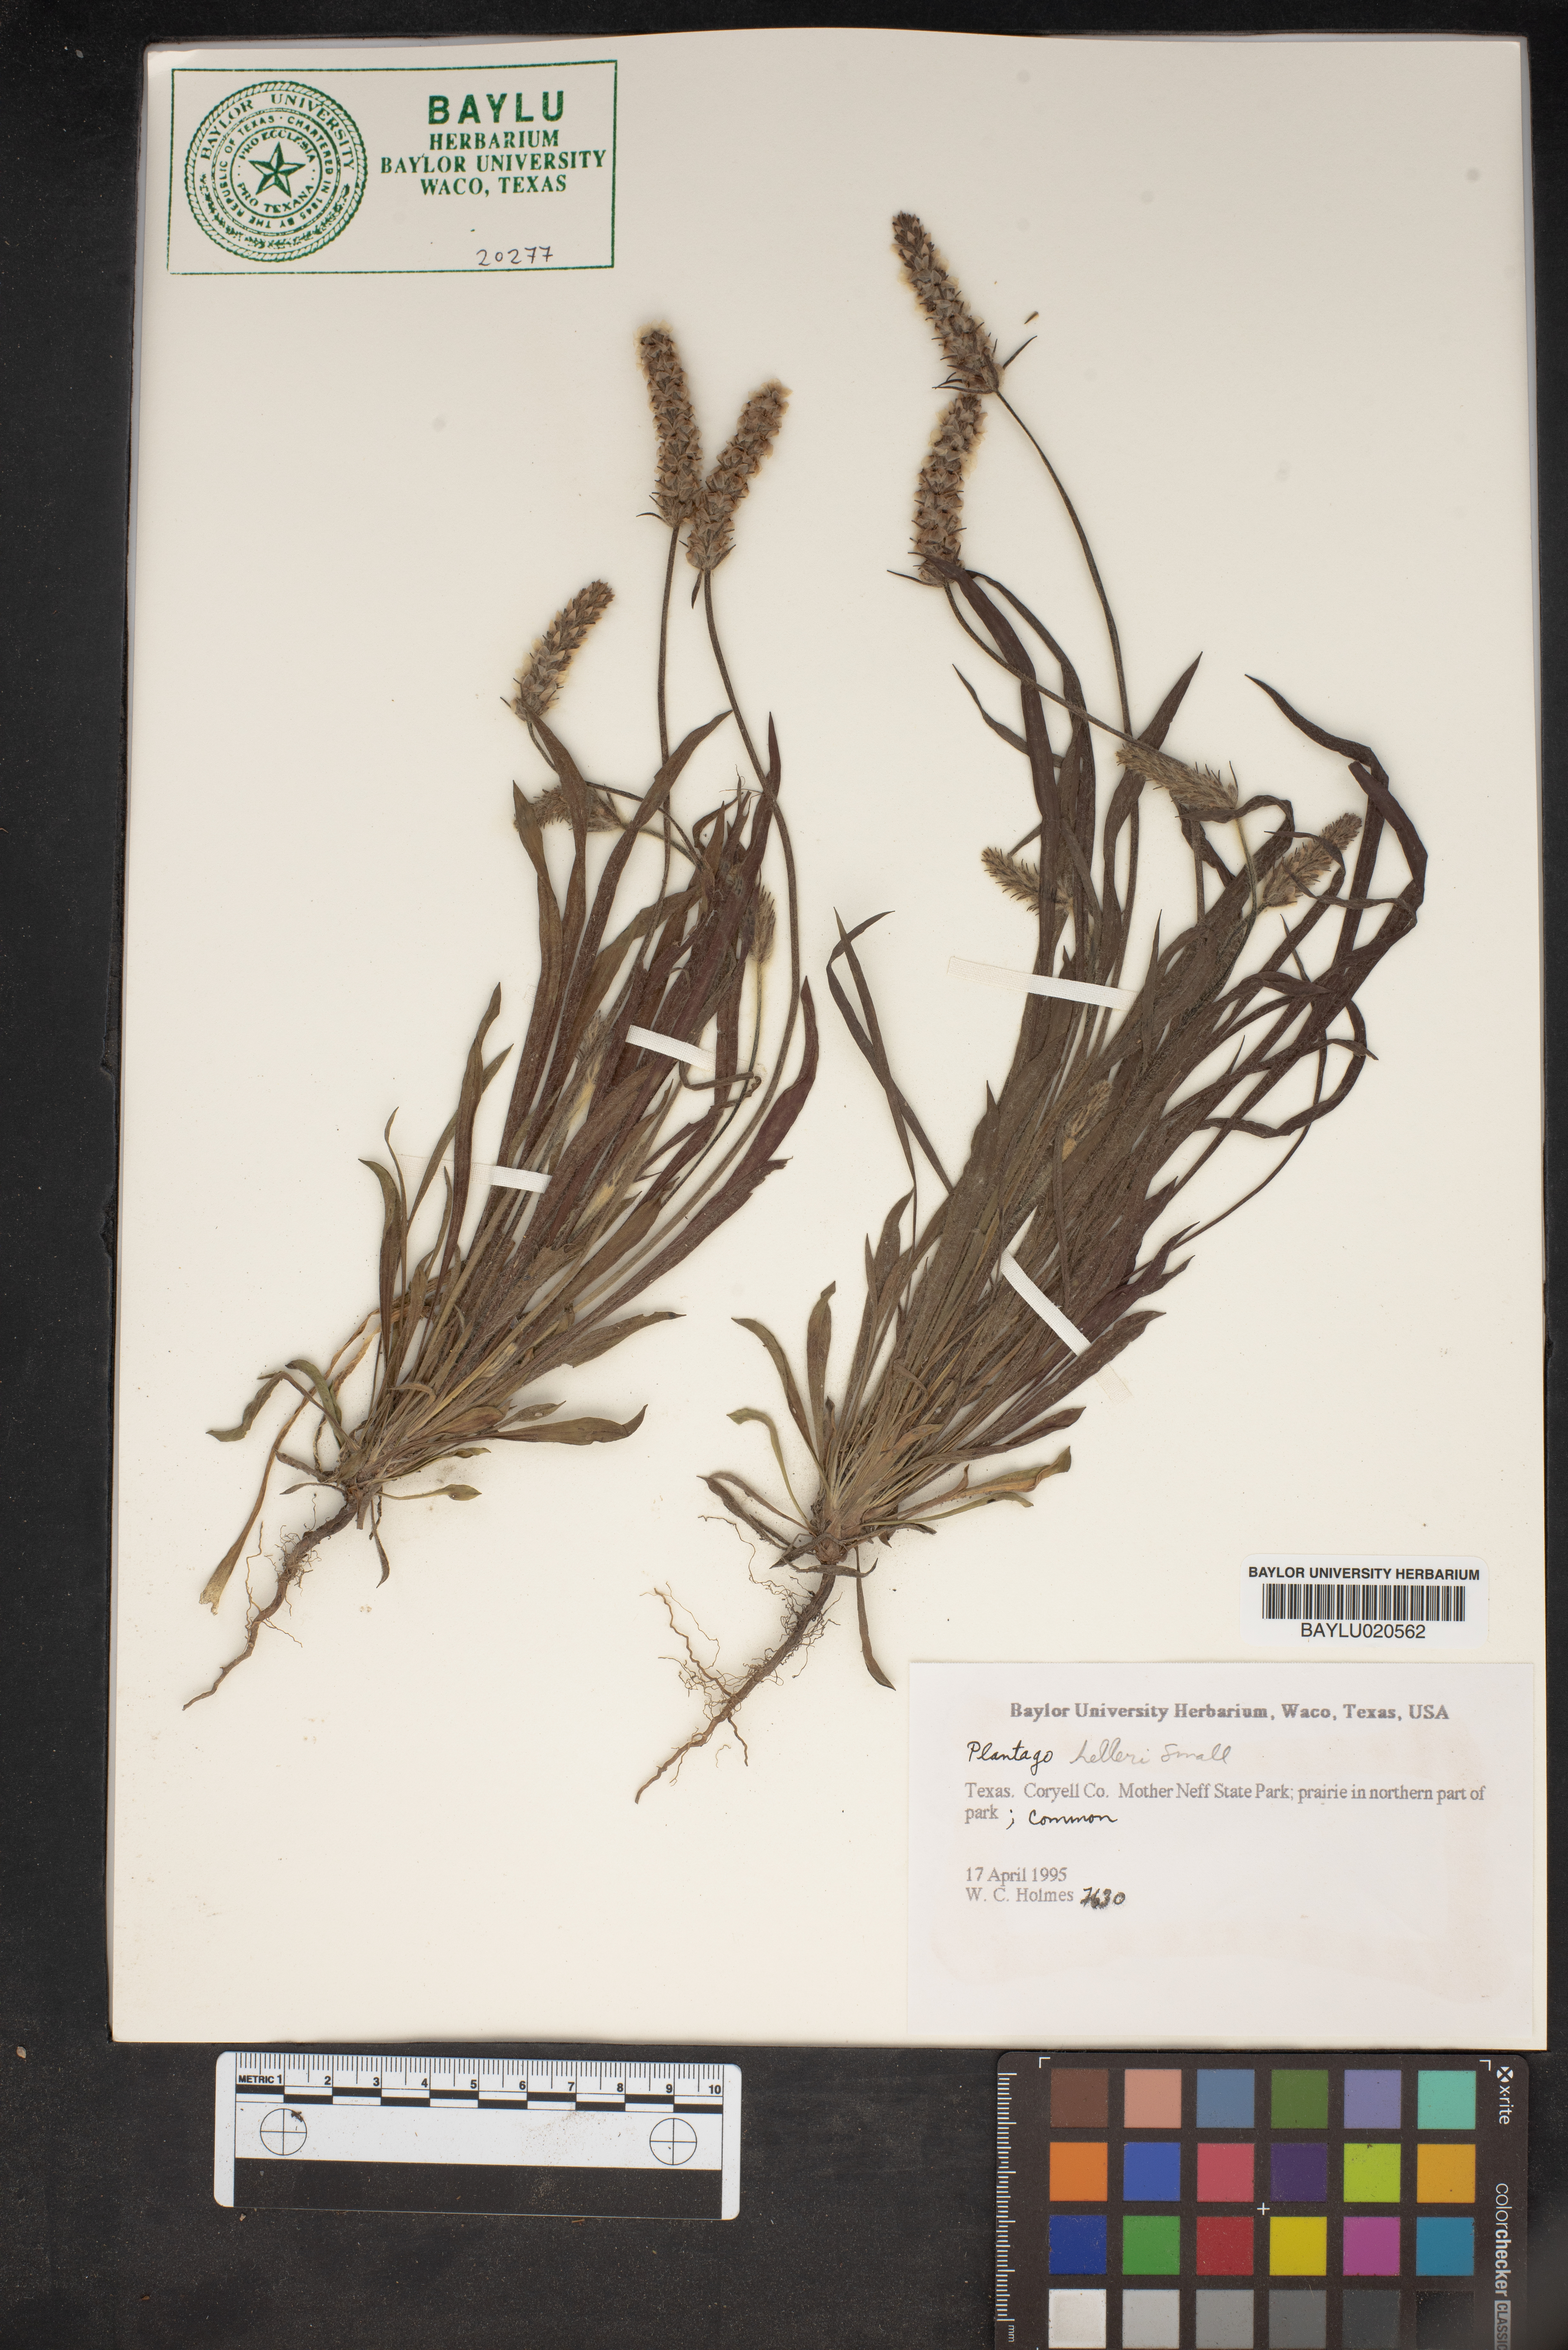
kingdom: Plantae
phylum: Tracheophyta
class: Magnoliopsida
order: Lamiales
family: Plantaginaceae
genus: Plantago
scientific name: Plantago helleri
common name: Heller's plantain
